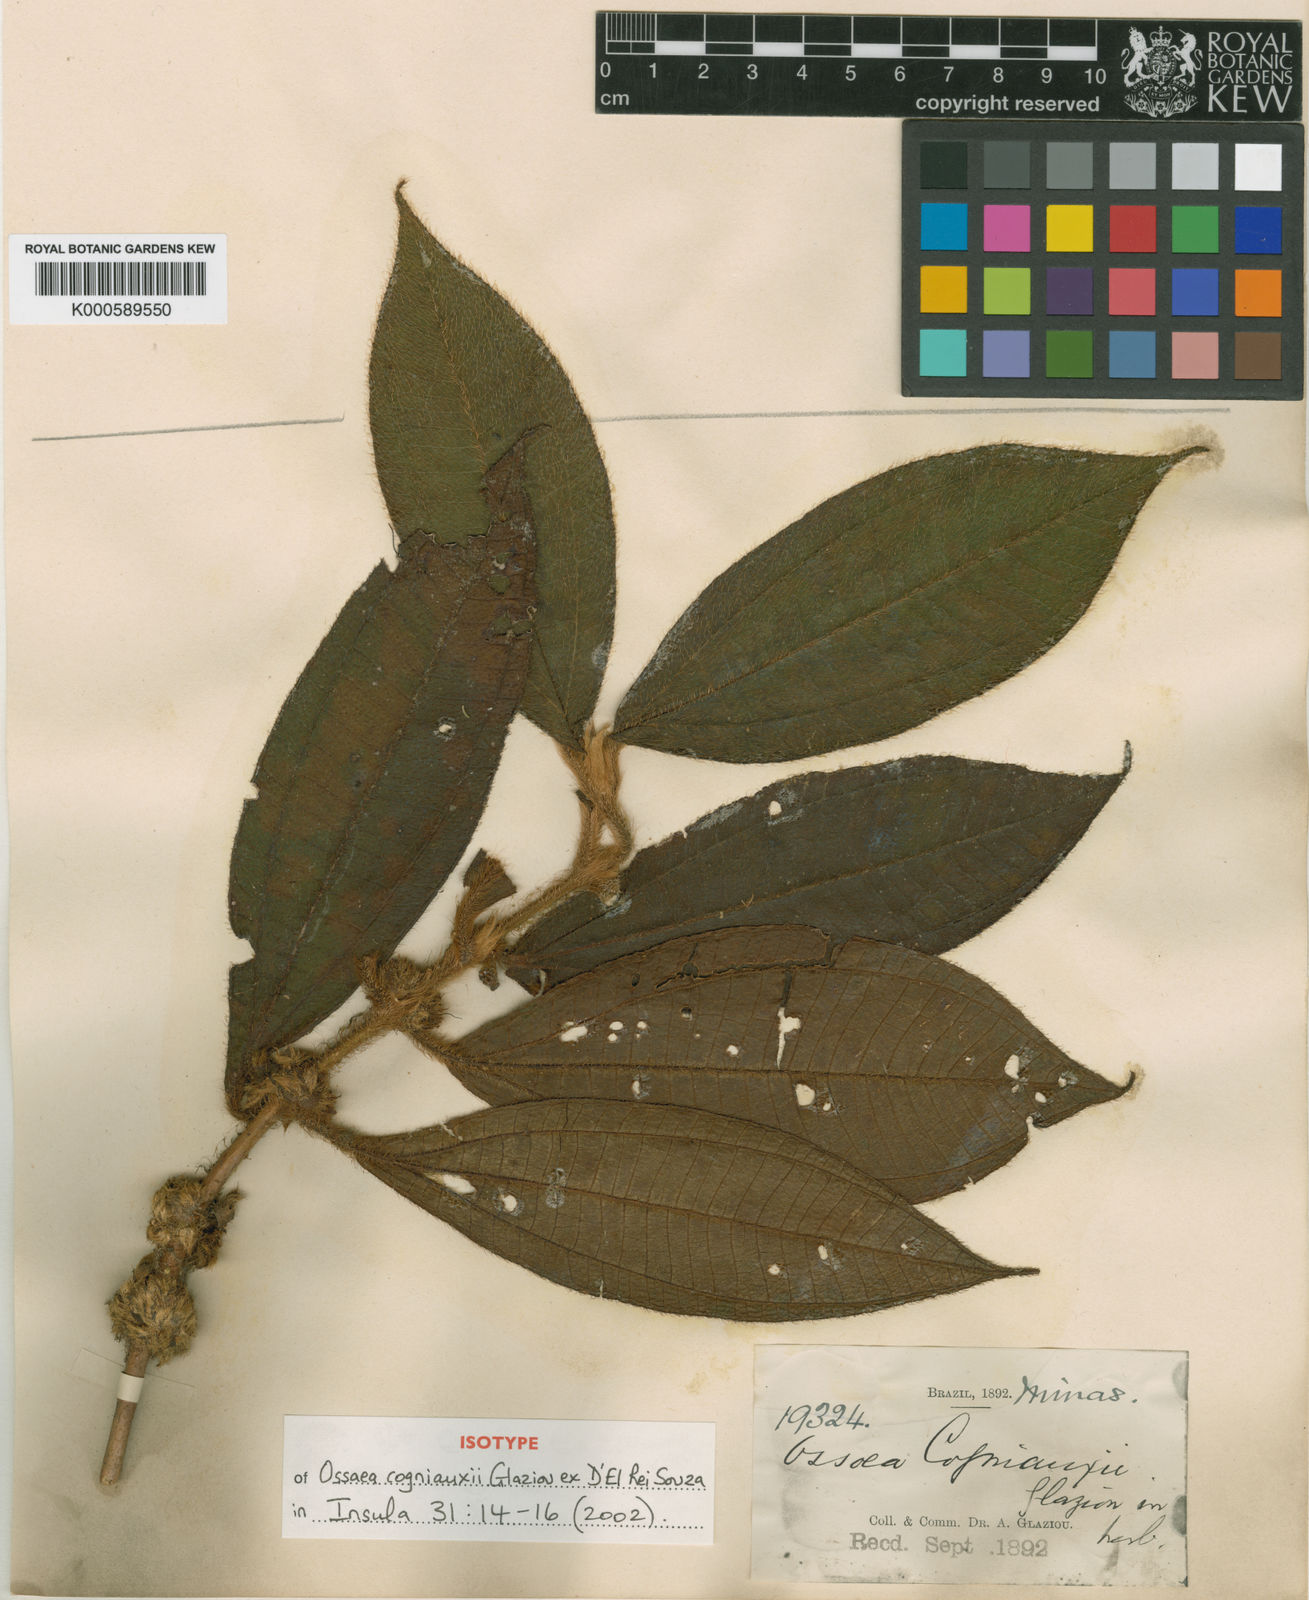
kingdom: Plantae
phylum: Tracheophyta
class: Magnoliopsida
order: Myrtales
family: Melastomataceae
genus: Miconia
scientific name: Miconia cogniauxii
